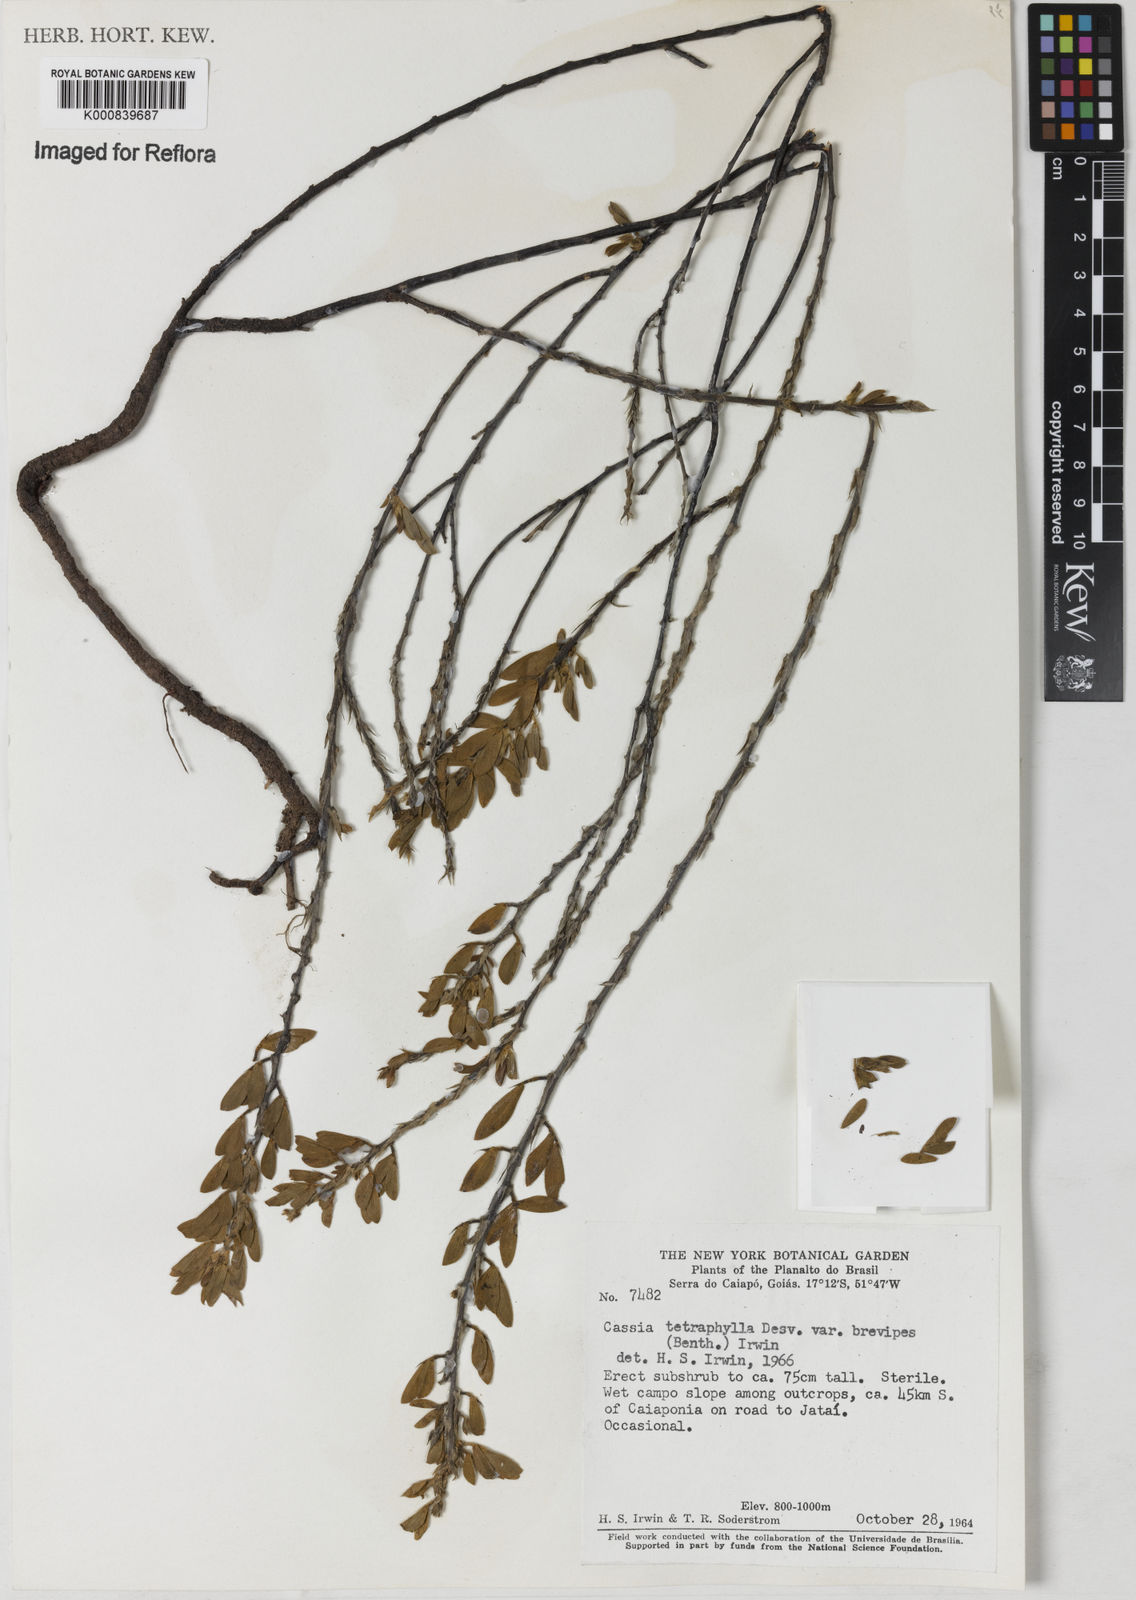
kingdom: Plantae
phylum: Tracheophyta
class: Magnoliopsida
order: Fabales
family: Fabaceae
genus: Chamaecrista
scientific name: Chamaecrista desvauxii
